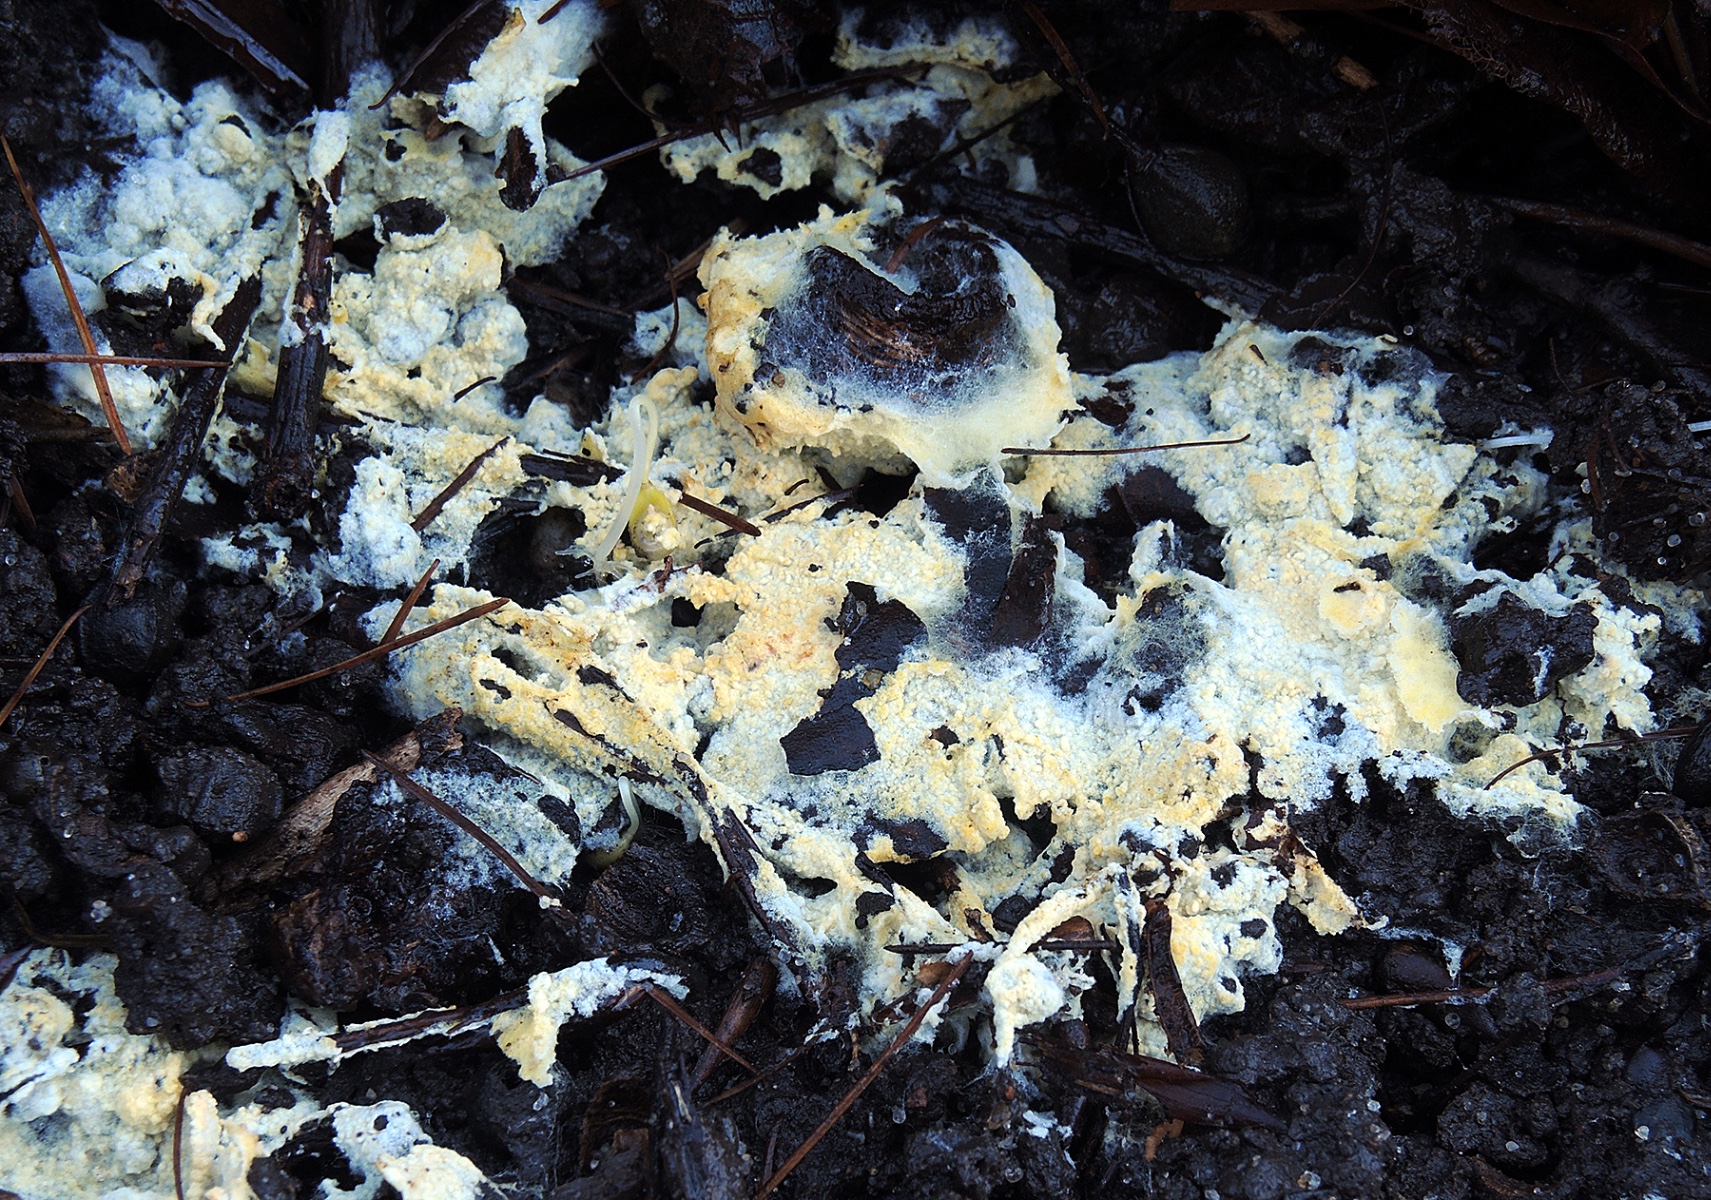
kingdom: Fungi
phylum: Basidiomycota
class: Agaricomycetes
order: Agaricales
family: Stephanosporaceae
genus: Lindtneria
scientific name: Lindtneria panphyliensis
